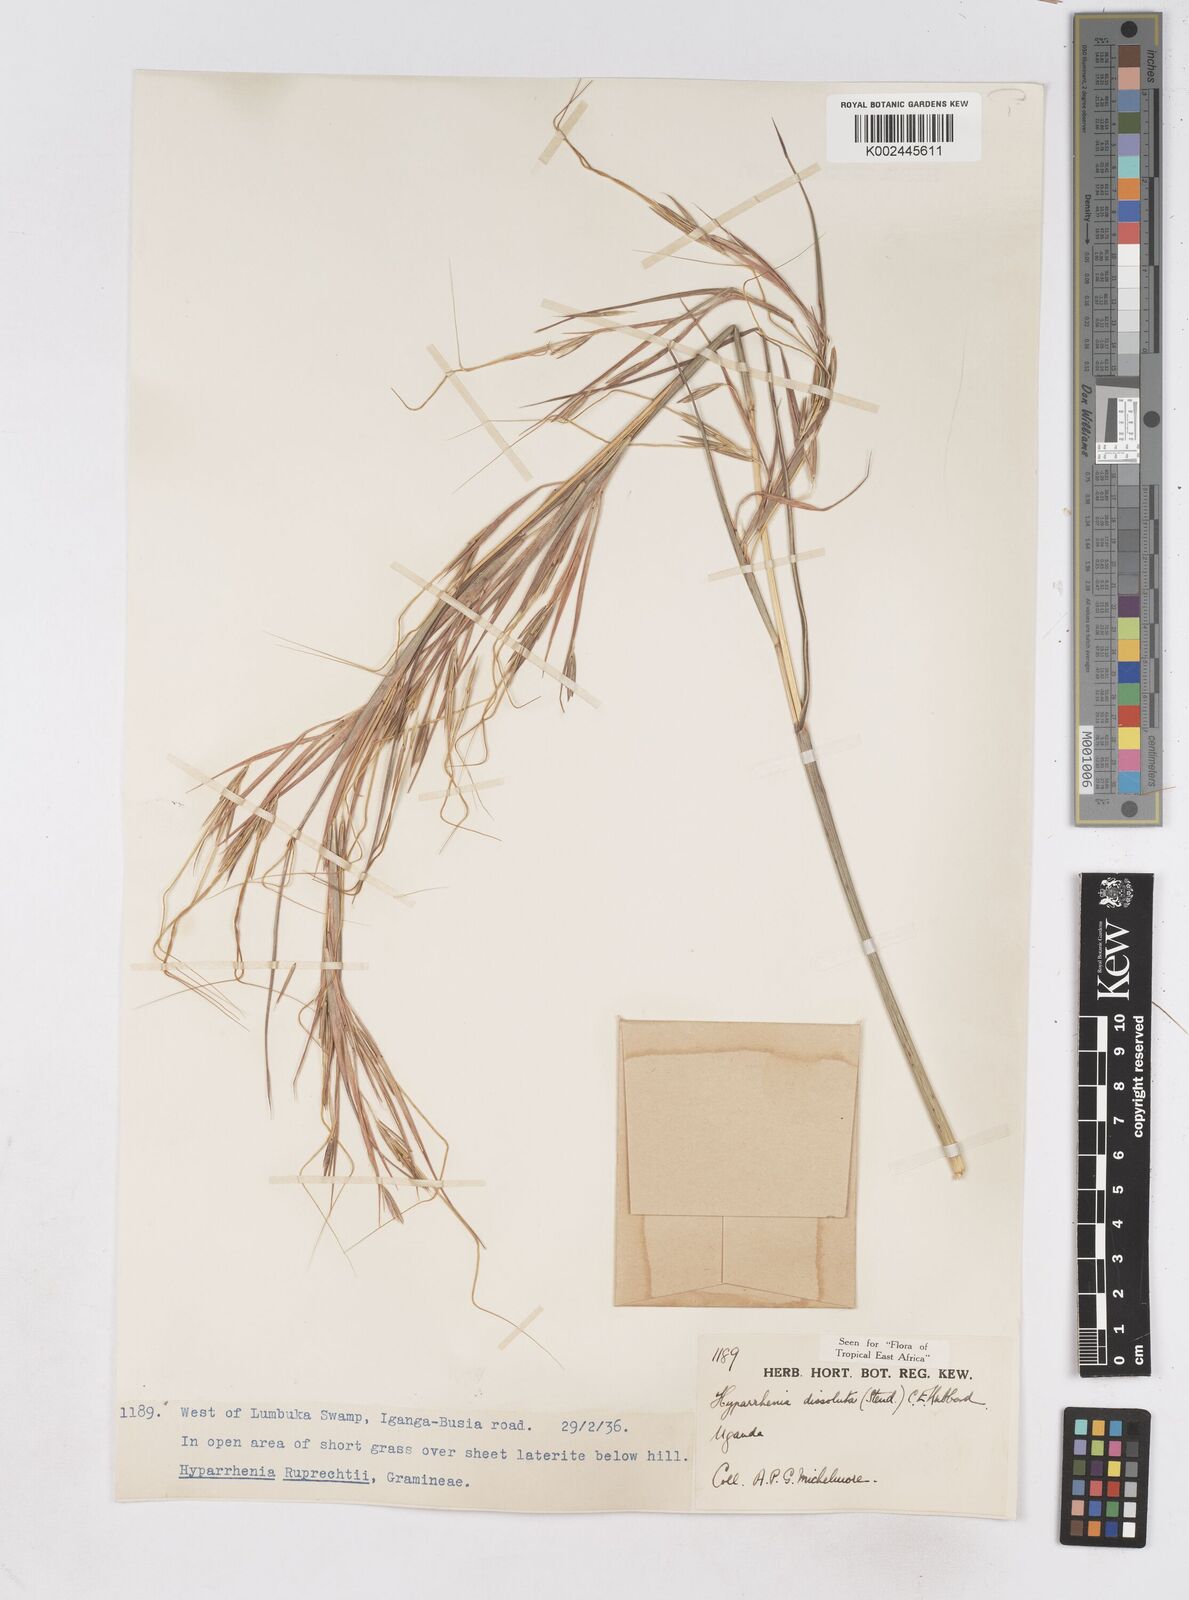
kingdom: Plantae
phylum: Tracheophyta
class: Liliopsida
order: Poales
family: Poaceae
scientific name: Poaceae
